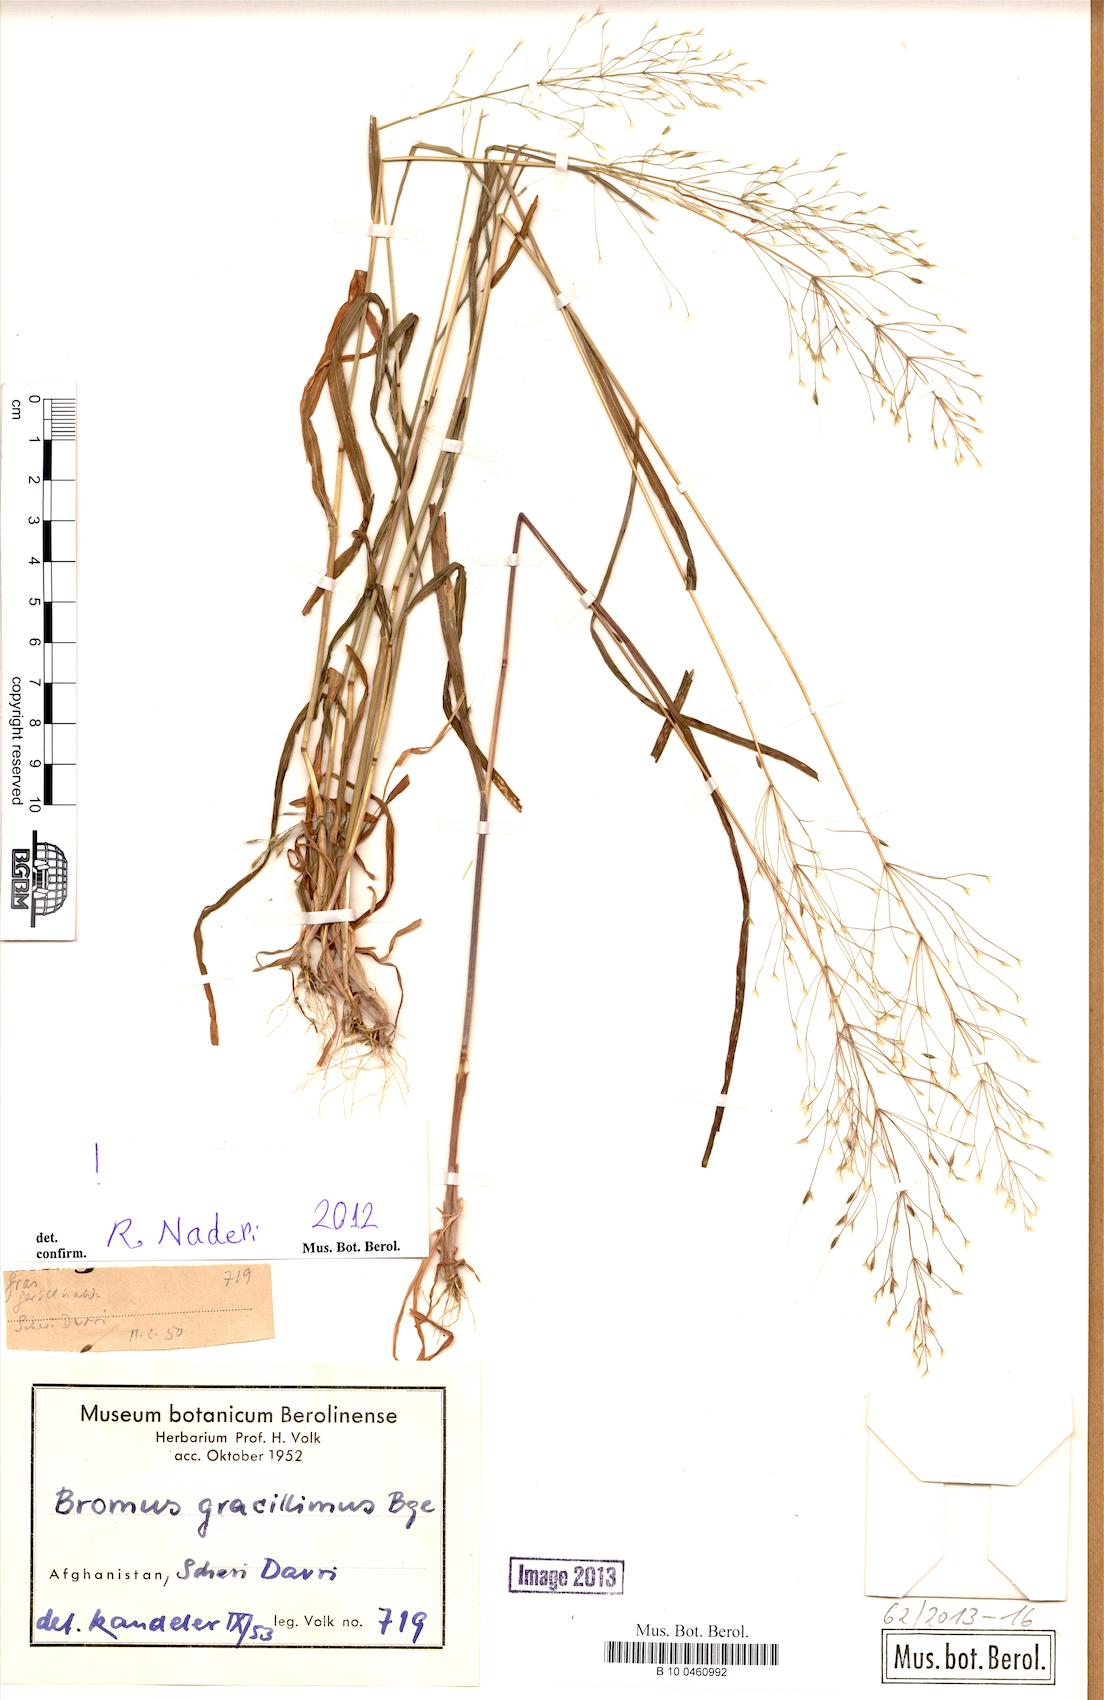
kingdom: Plantae
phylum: Tracheophyta
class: Liliopsida
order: Poales
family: Poaceae
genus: Bromus
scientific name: Bromus gracillimus
